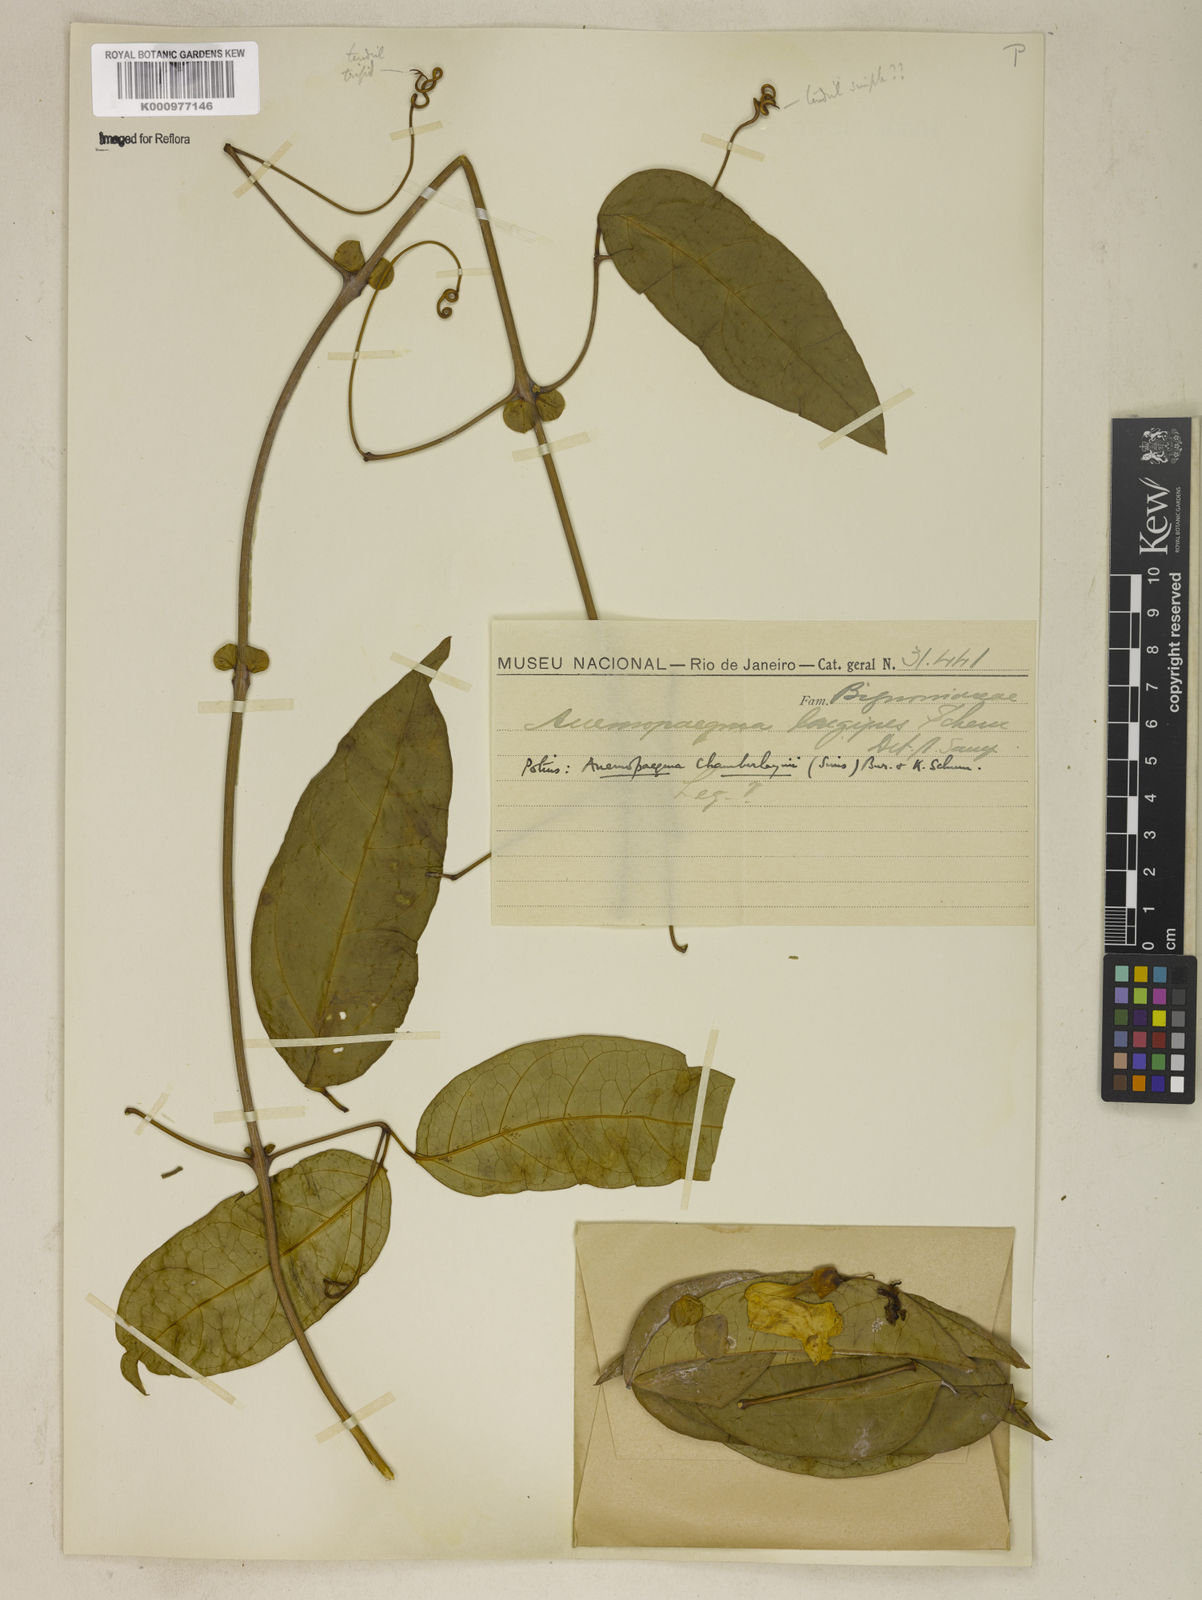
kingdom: Plantae
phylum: Tracheophyta
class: Magnoliopsida
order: Lamiales
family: Bignoniaceae
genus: Anemopaegma
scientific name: Anemopaegma chamberlaynii
